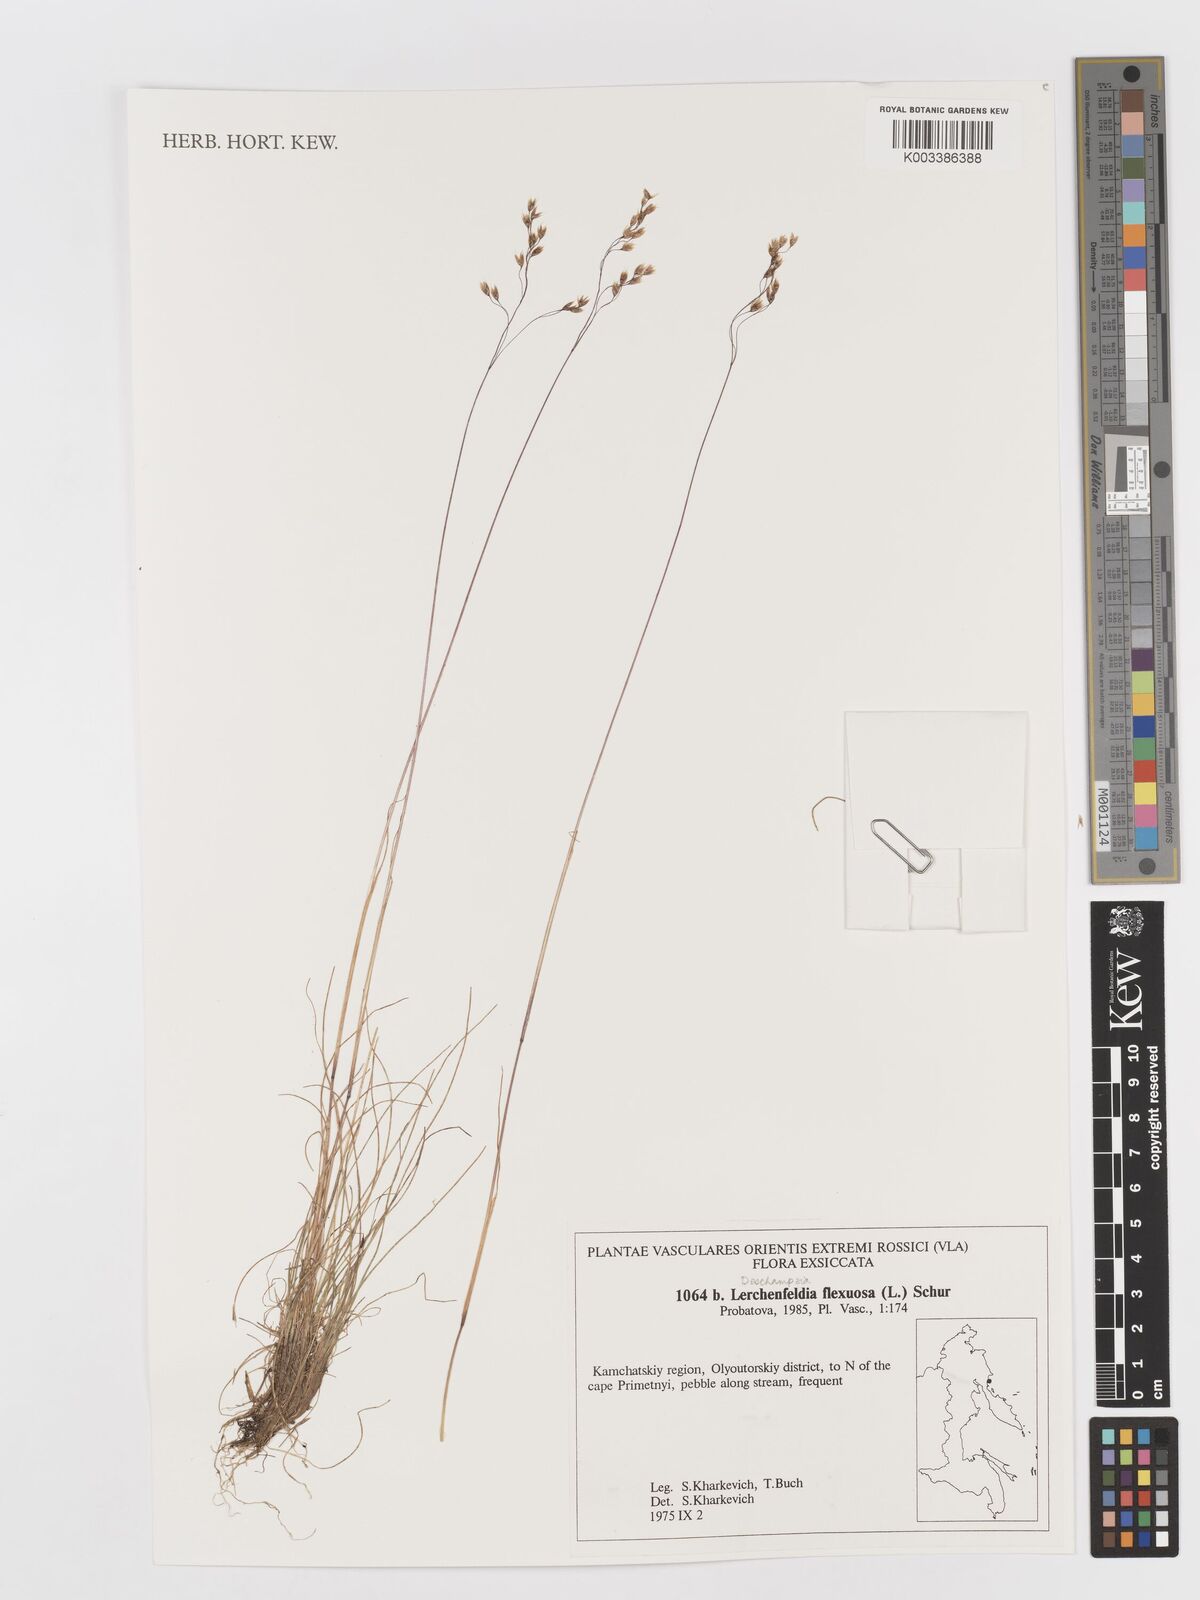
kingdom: Plantae
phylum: Tracheophyta
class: Liliopsida
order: Poales
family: Poaceae
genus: Avenella
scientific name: Avenella flexuosa
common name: Wavy hairgrass
